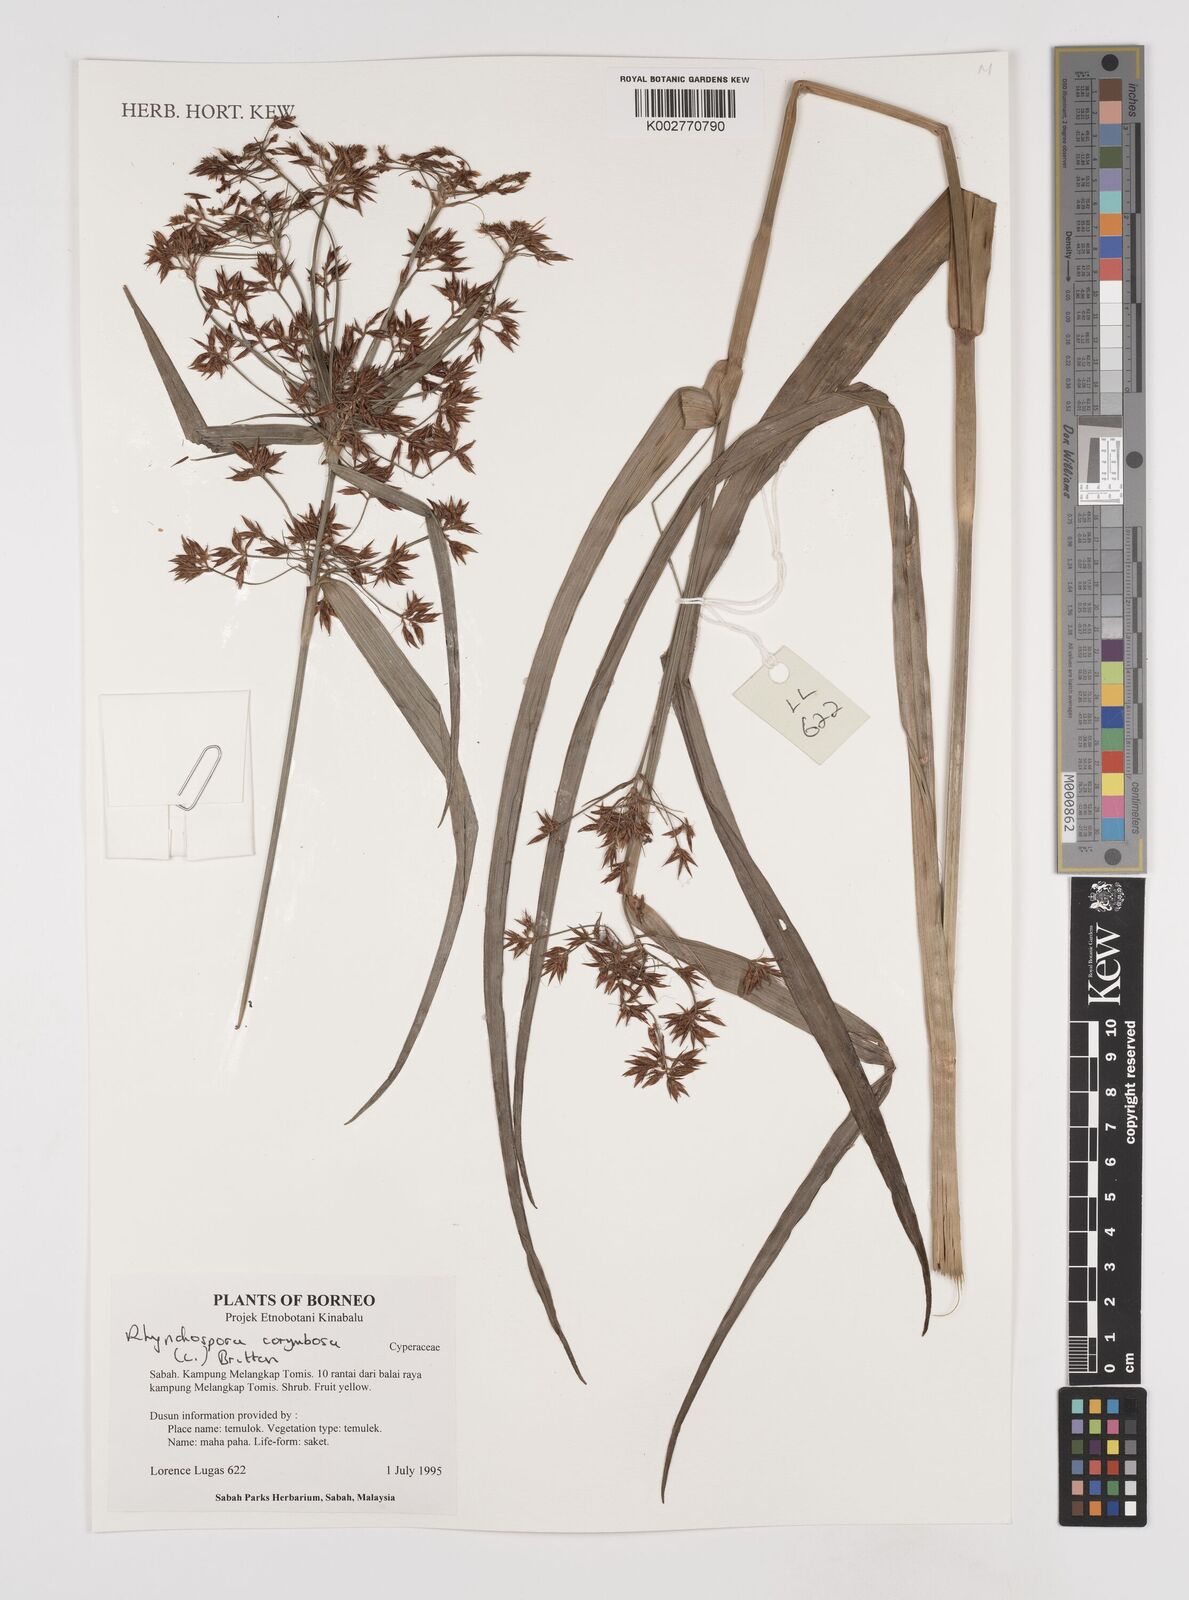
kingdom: Plantae
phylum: Tracheophyta
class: Liliopsida
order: Poales
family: Cyperaceae
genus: Rhynchospora
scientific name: Rhynchospora corymbosa
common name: Golden beak sedge
